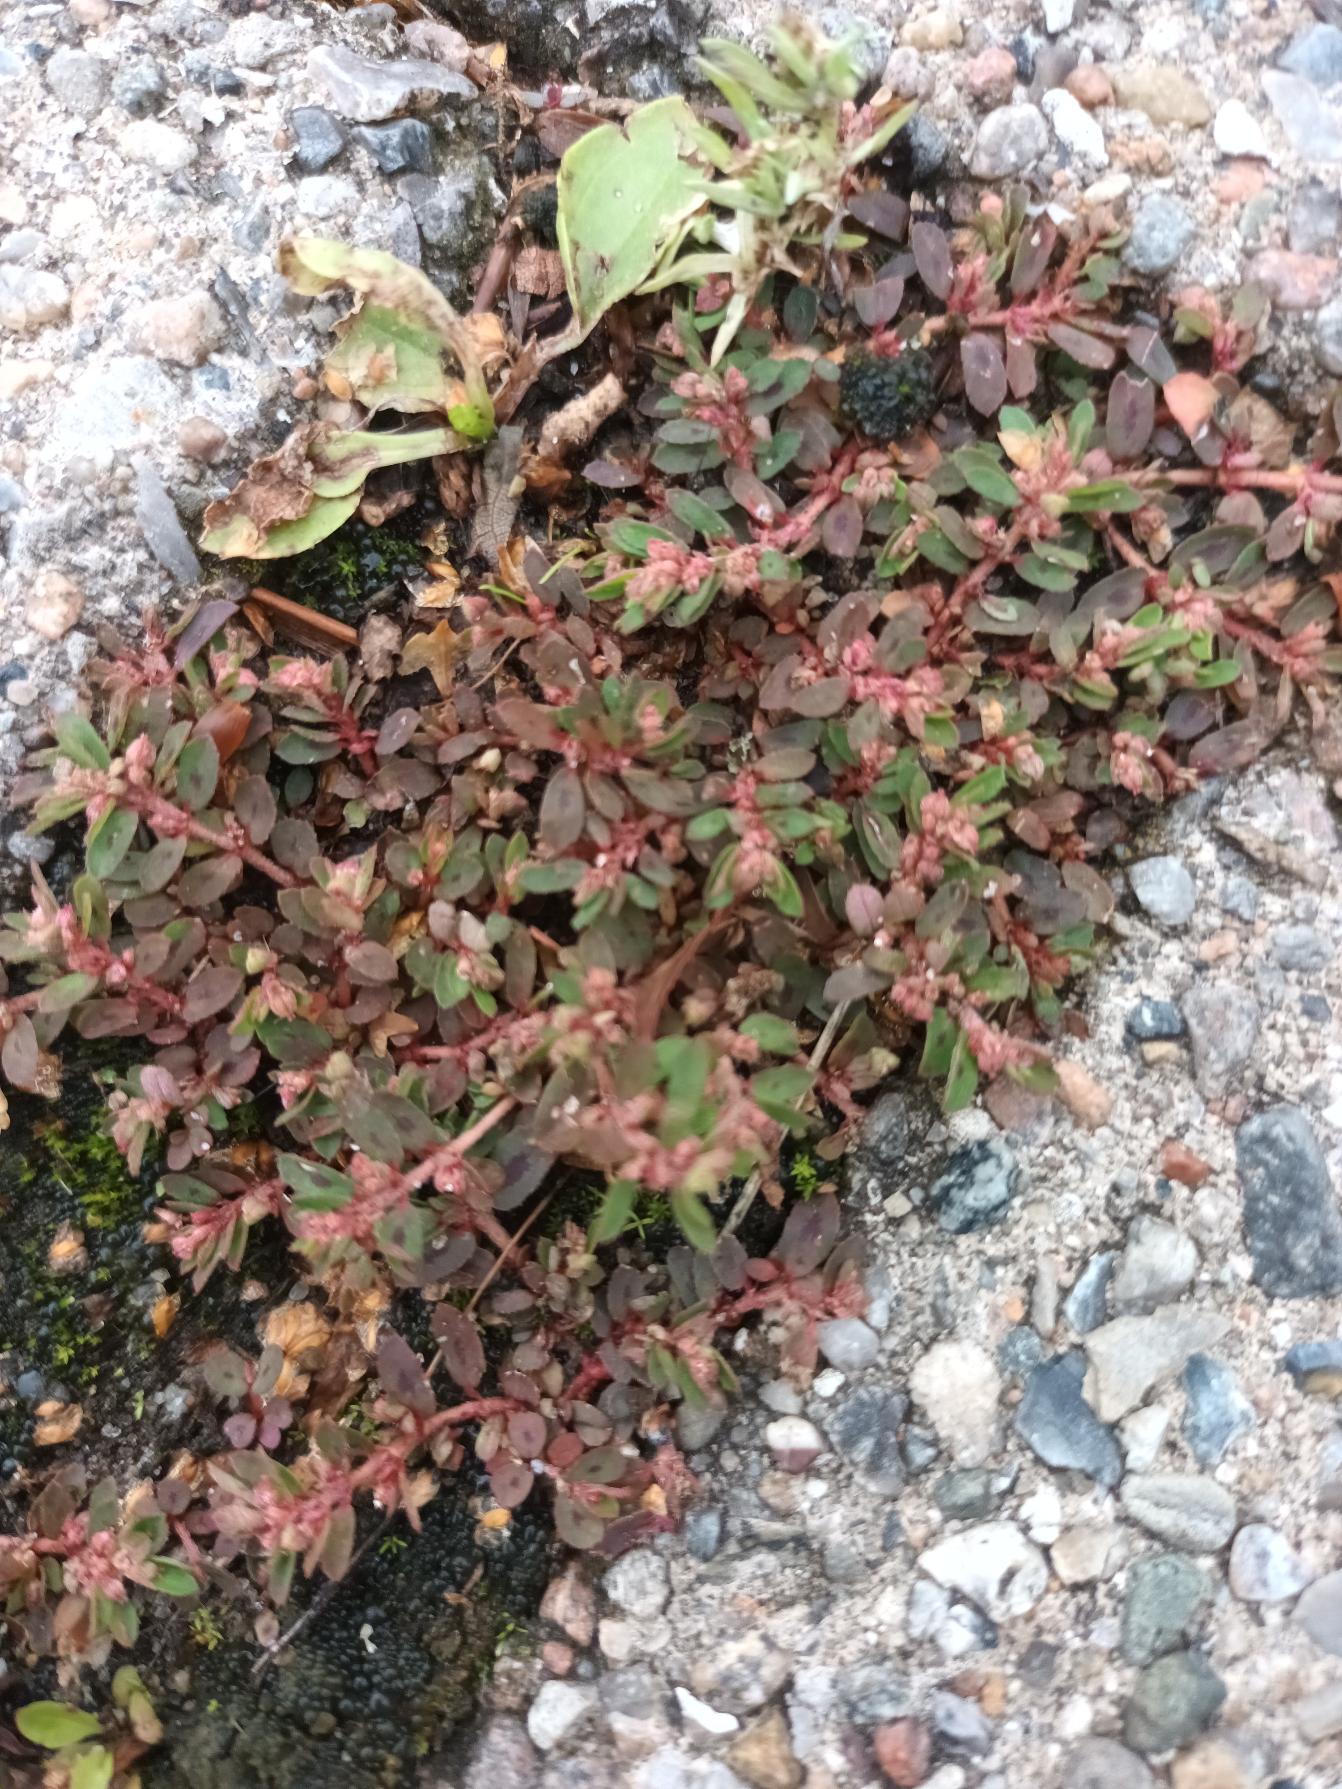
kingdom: Plantae
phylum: Tracheophyta
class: Magnoliopsida
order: Malpighiales
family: Euphorbiaceae
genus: Euphorbia
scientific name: Euphorbia maculata
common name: Plet-vortemælk
